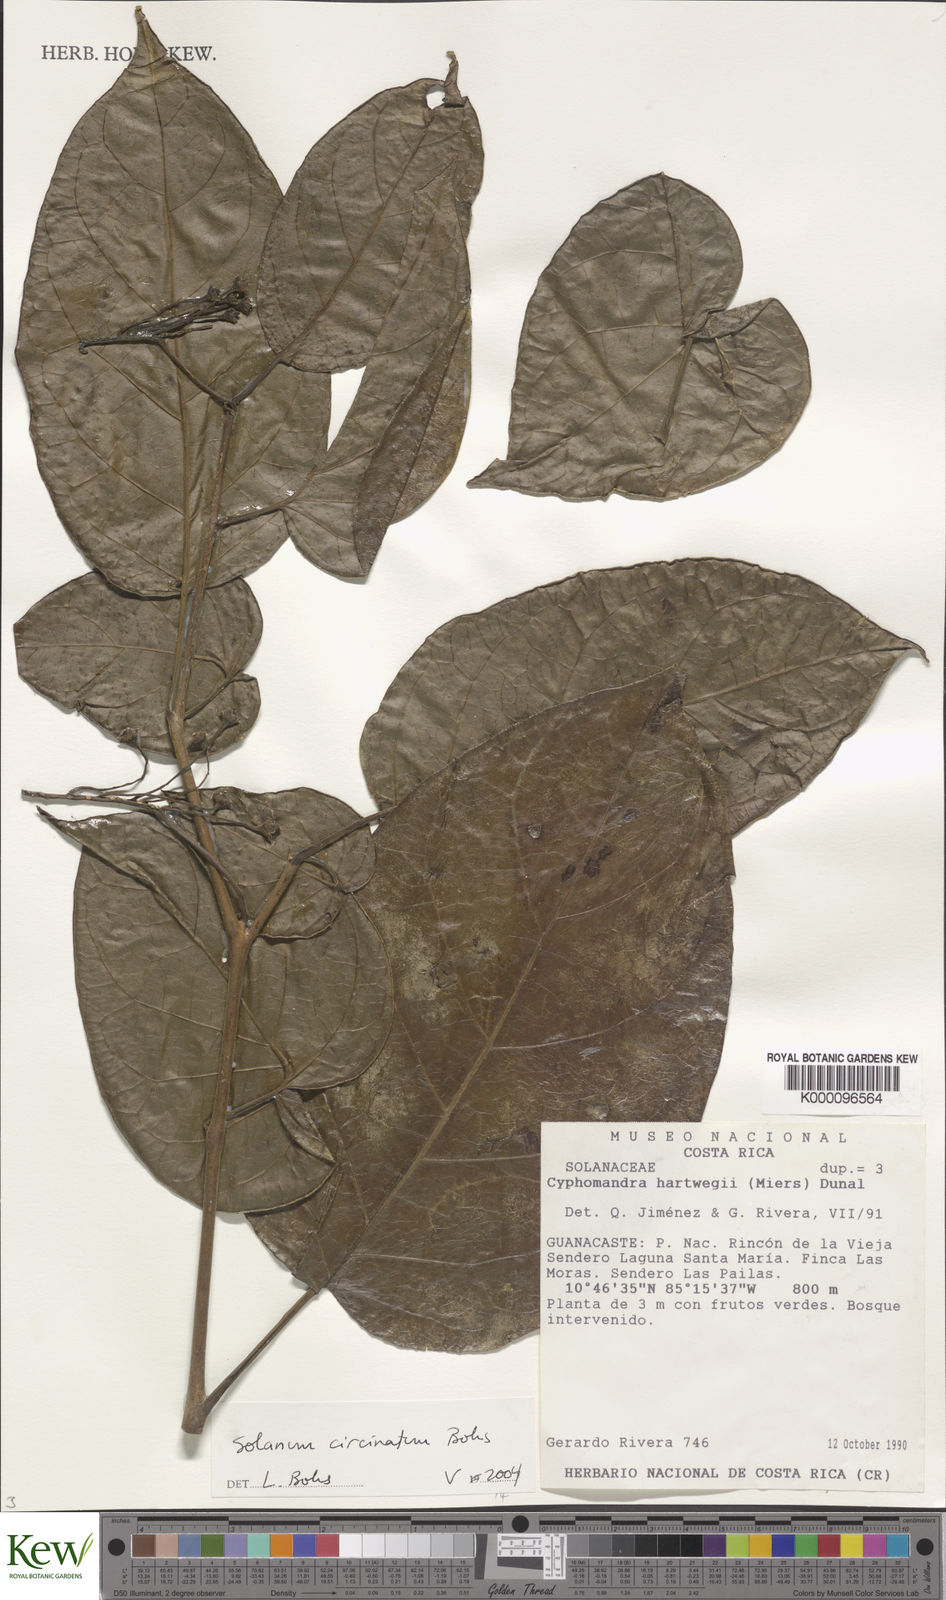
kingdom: Plantae
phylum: Tracheophyta
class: Magnoliopsida
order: Solanales
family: Solanaceae
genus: Solanum
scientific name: Solanum splendens
